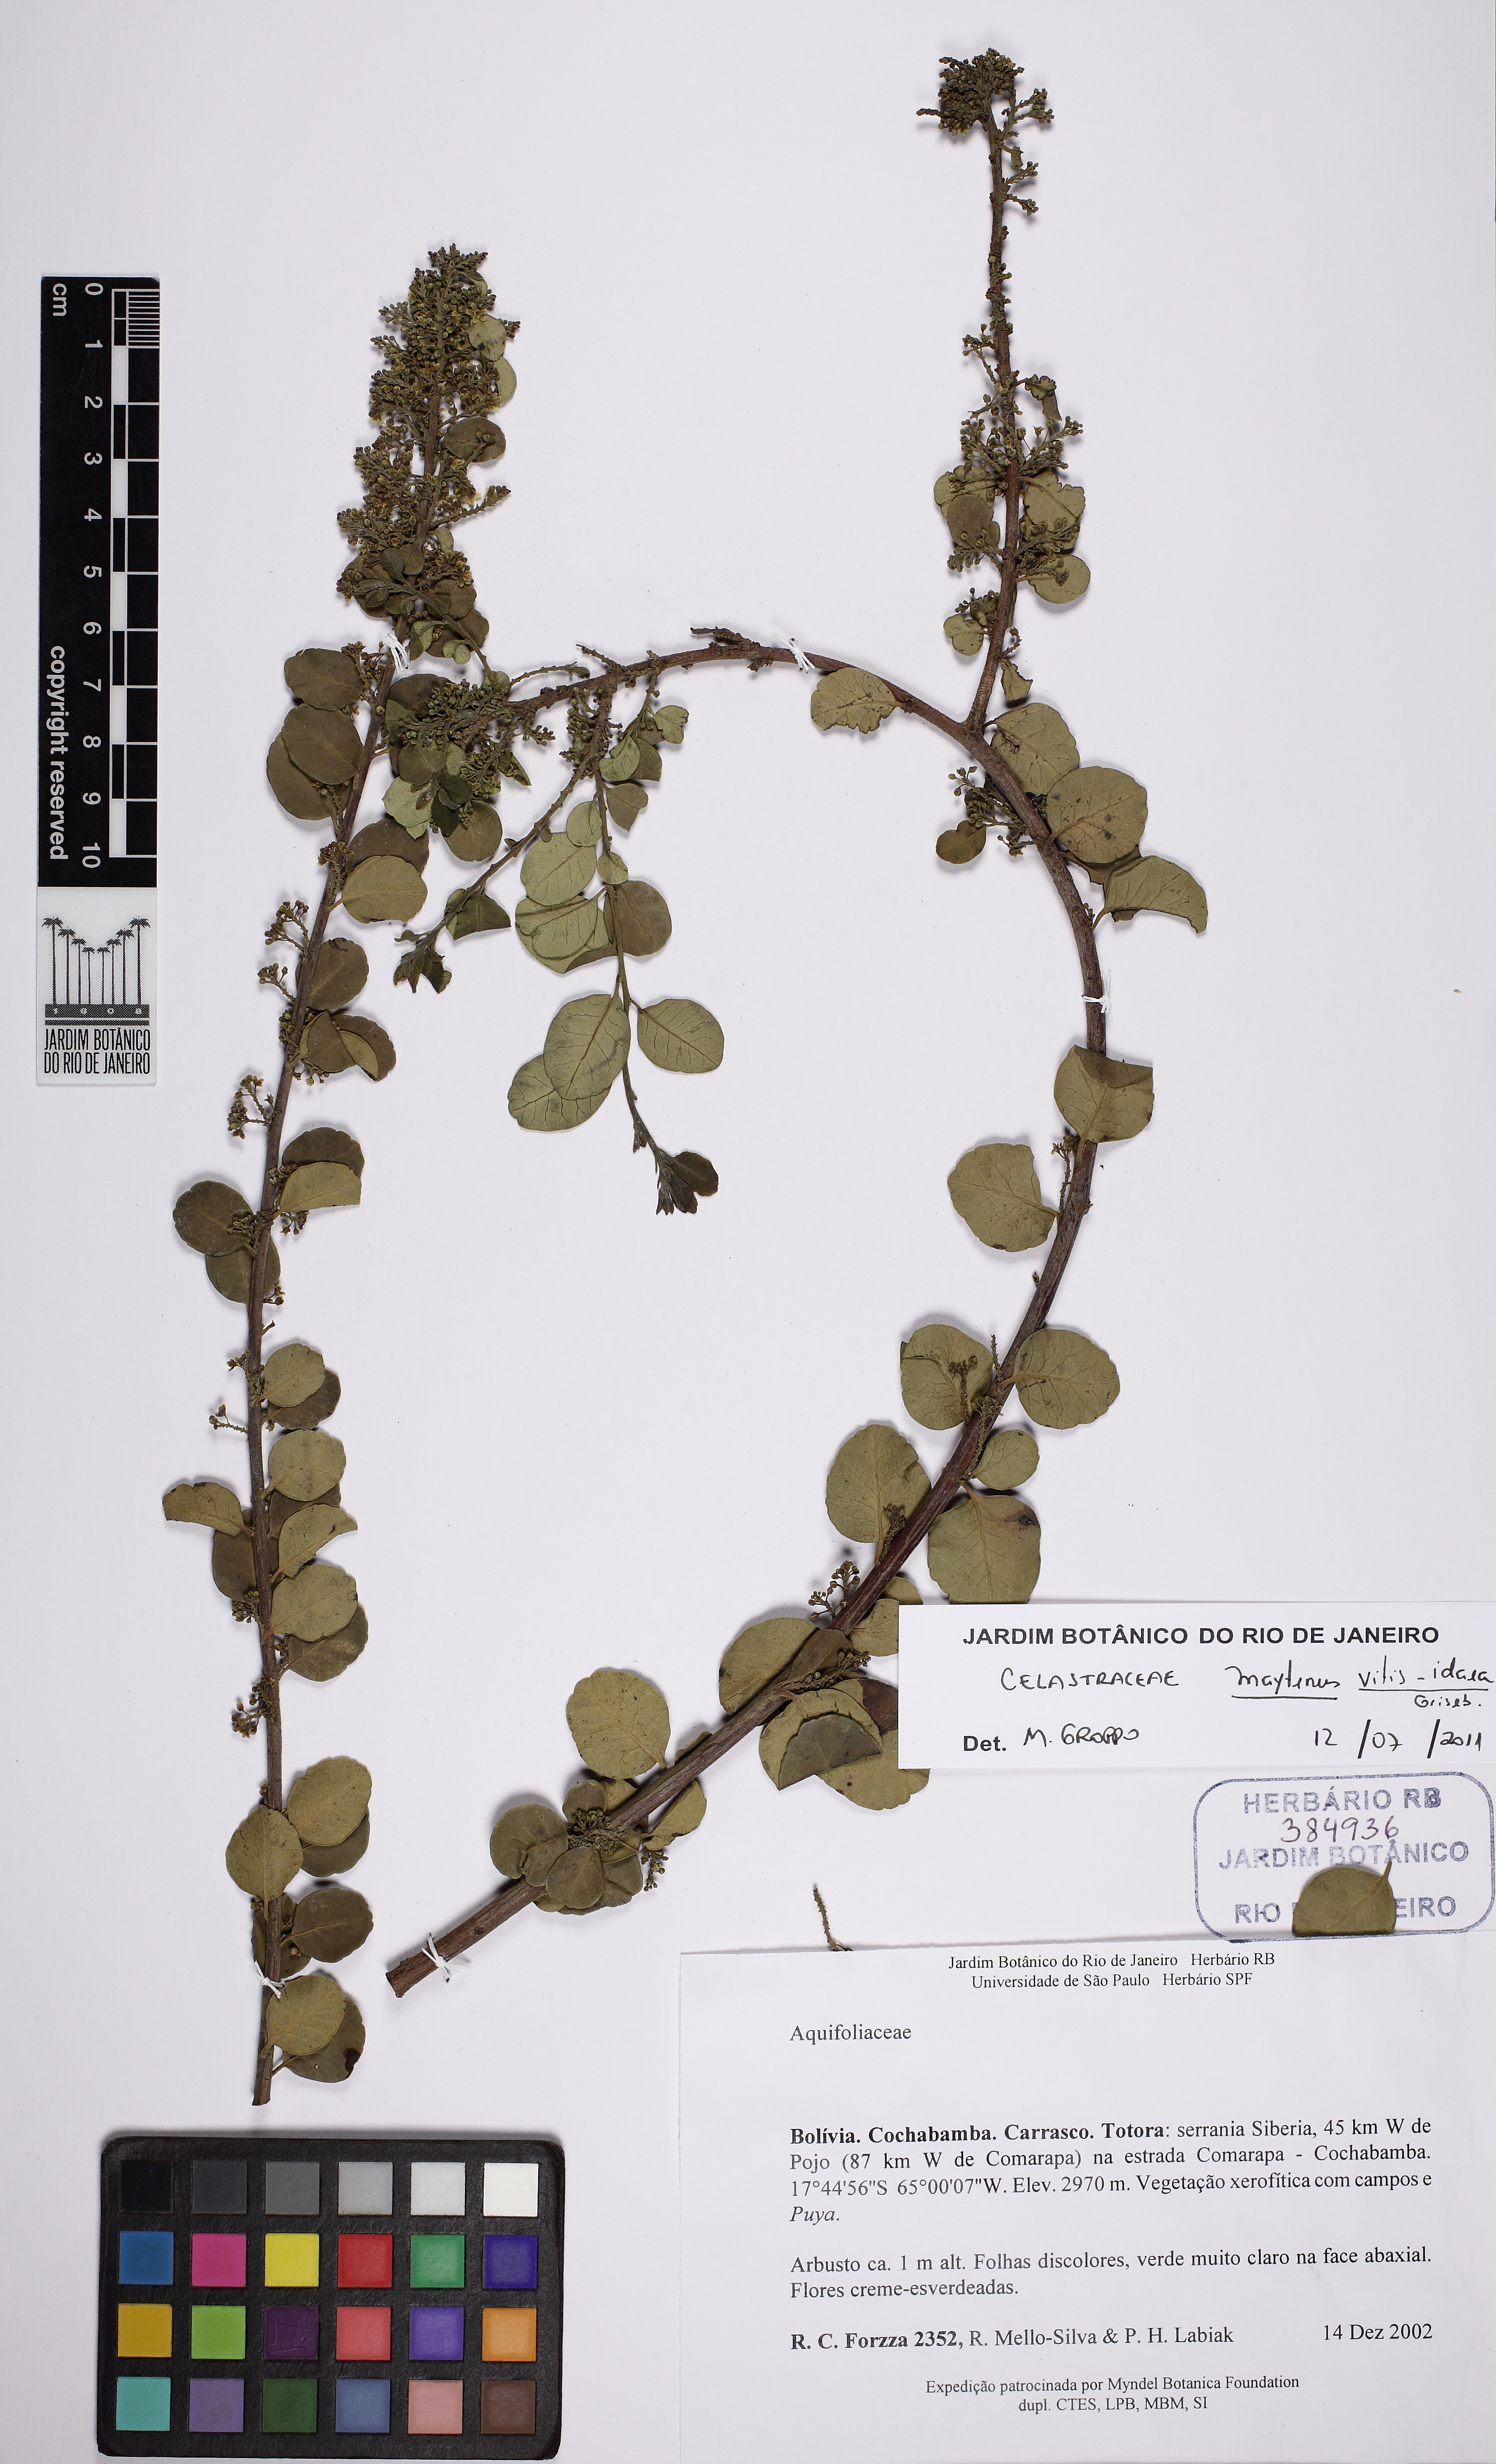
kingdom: Plantae
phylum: Tracheophyta
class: Magnoliopsida
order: Celastrales
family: Celastraceae
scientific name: Celastraceae
